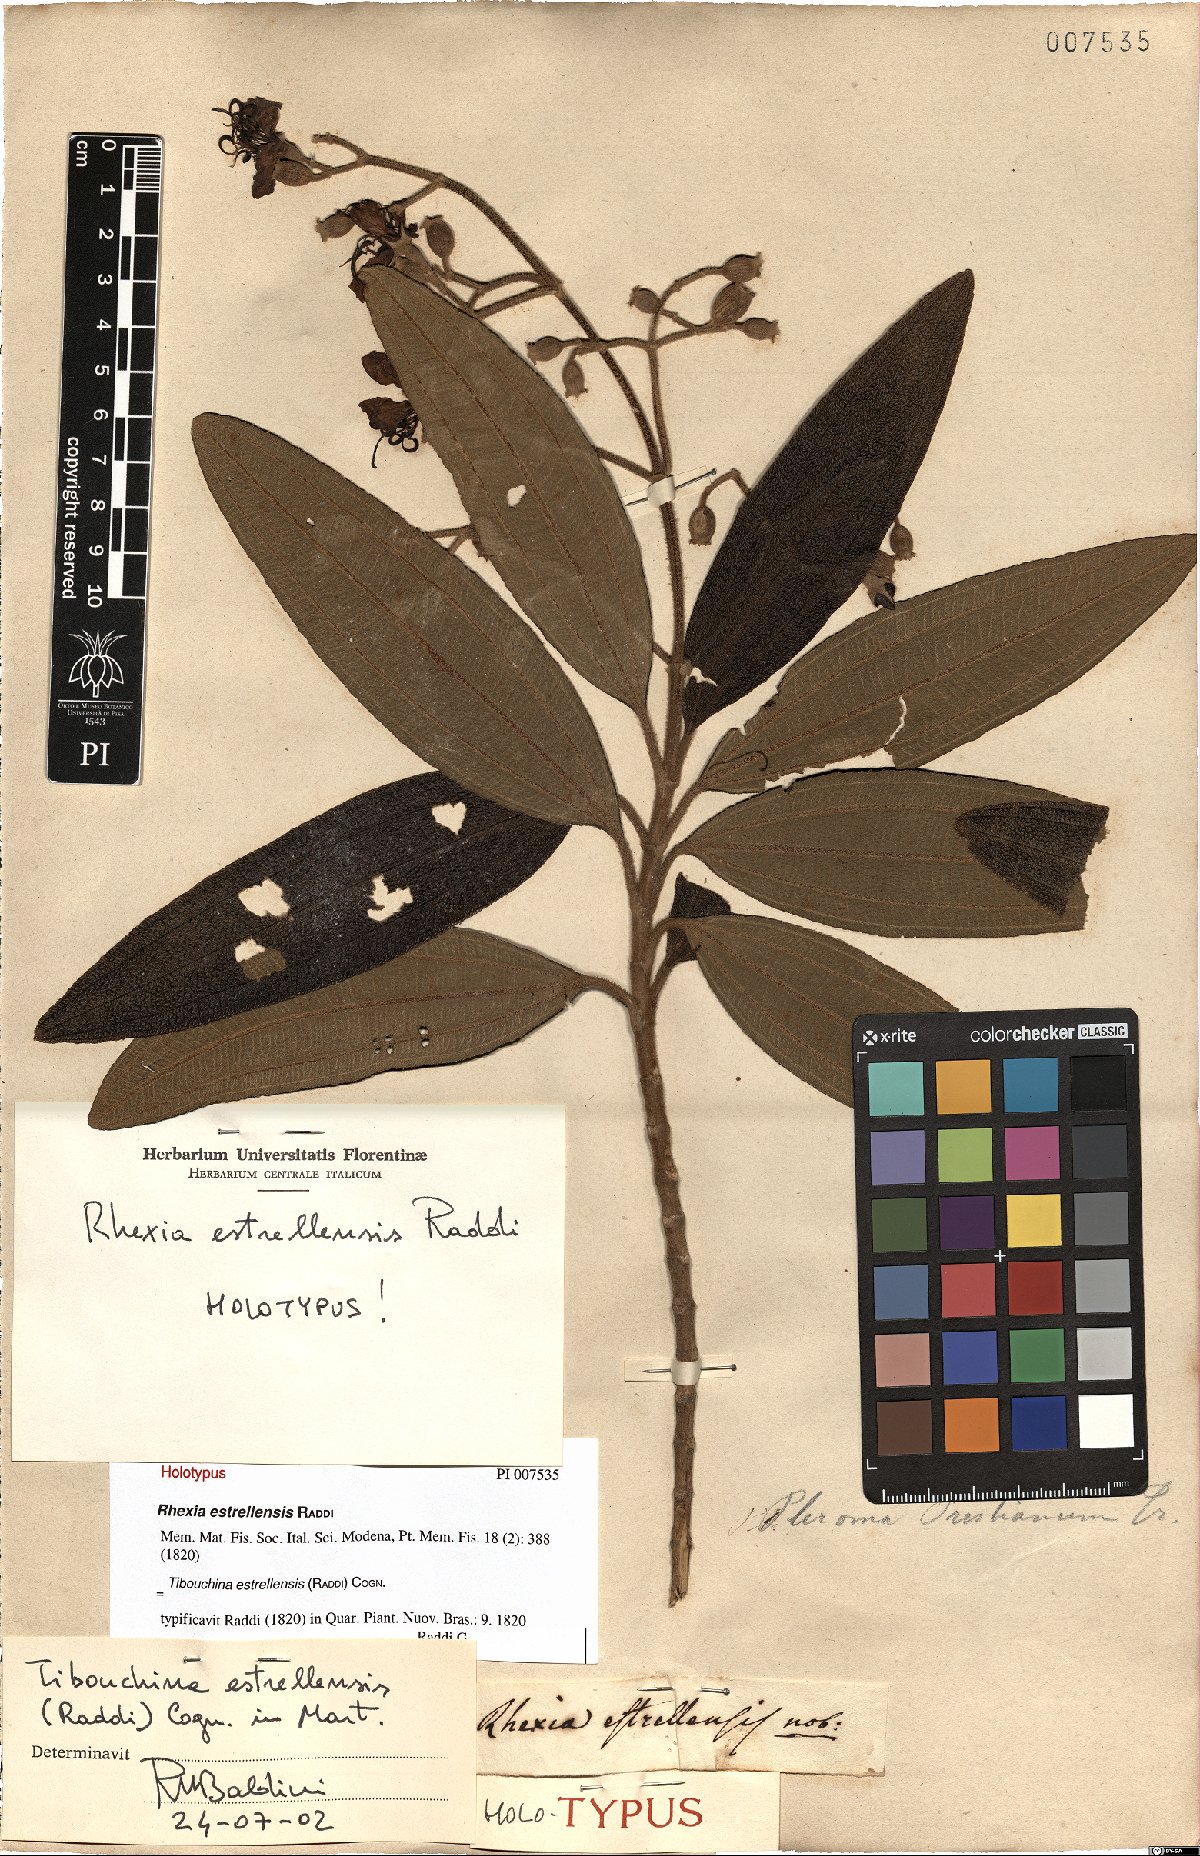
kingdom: Plantae
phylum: Tracheophyta
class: Magnoliopsida
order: Myrtales
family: Melastomataceae
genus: Pleroma
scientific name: Pleroma estrellense
